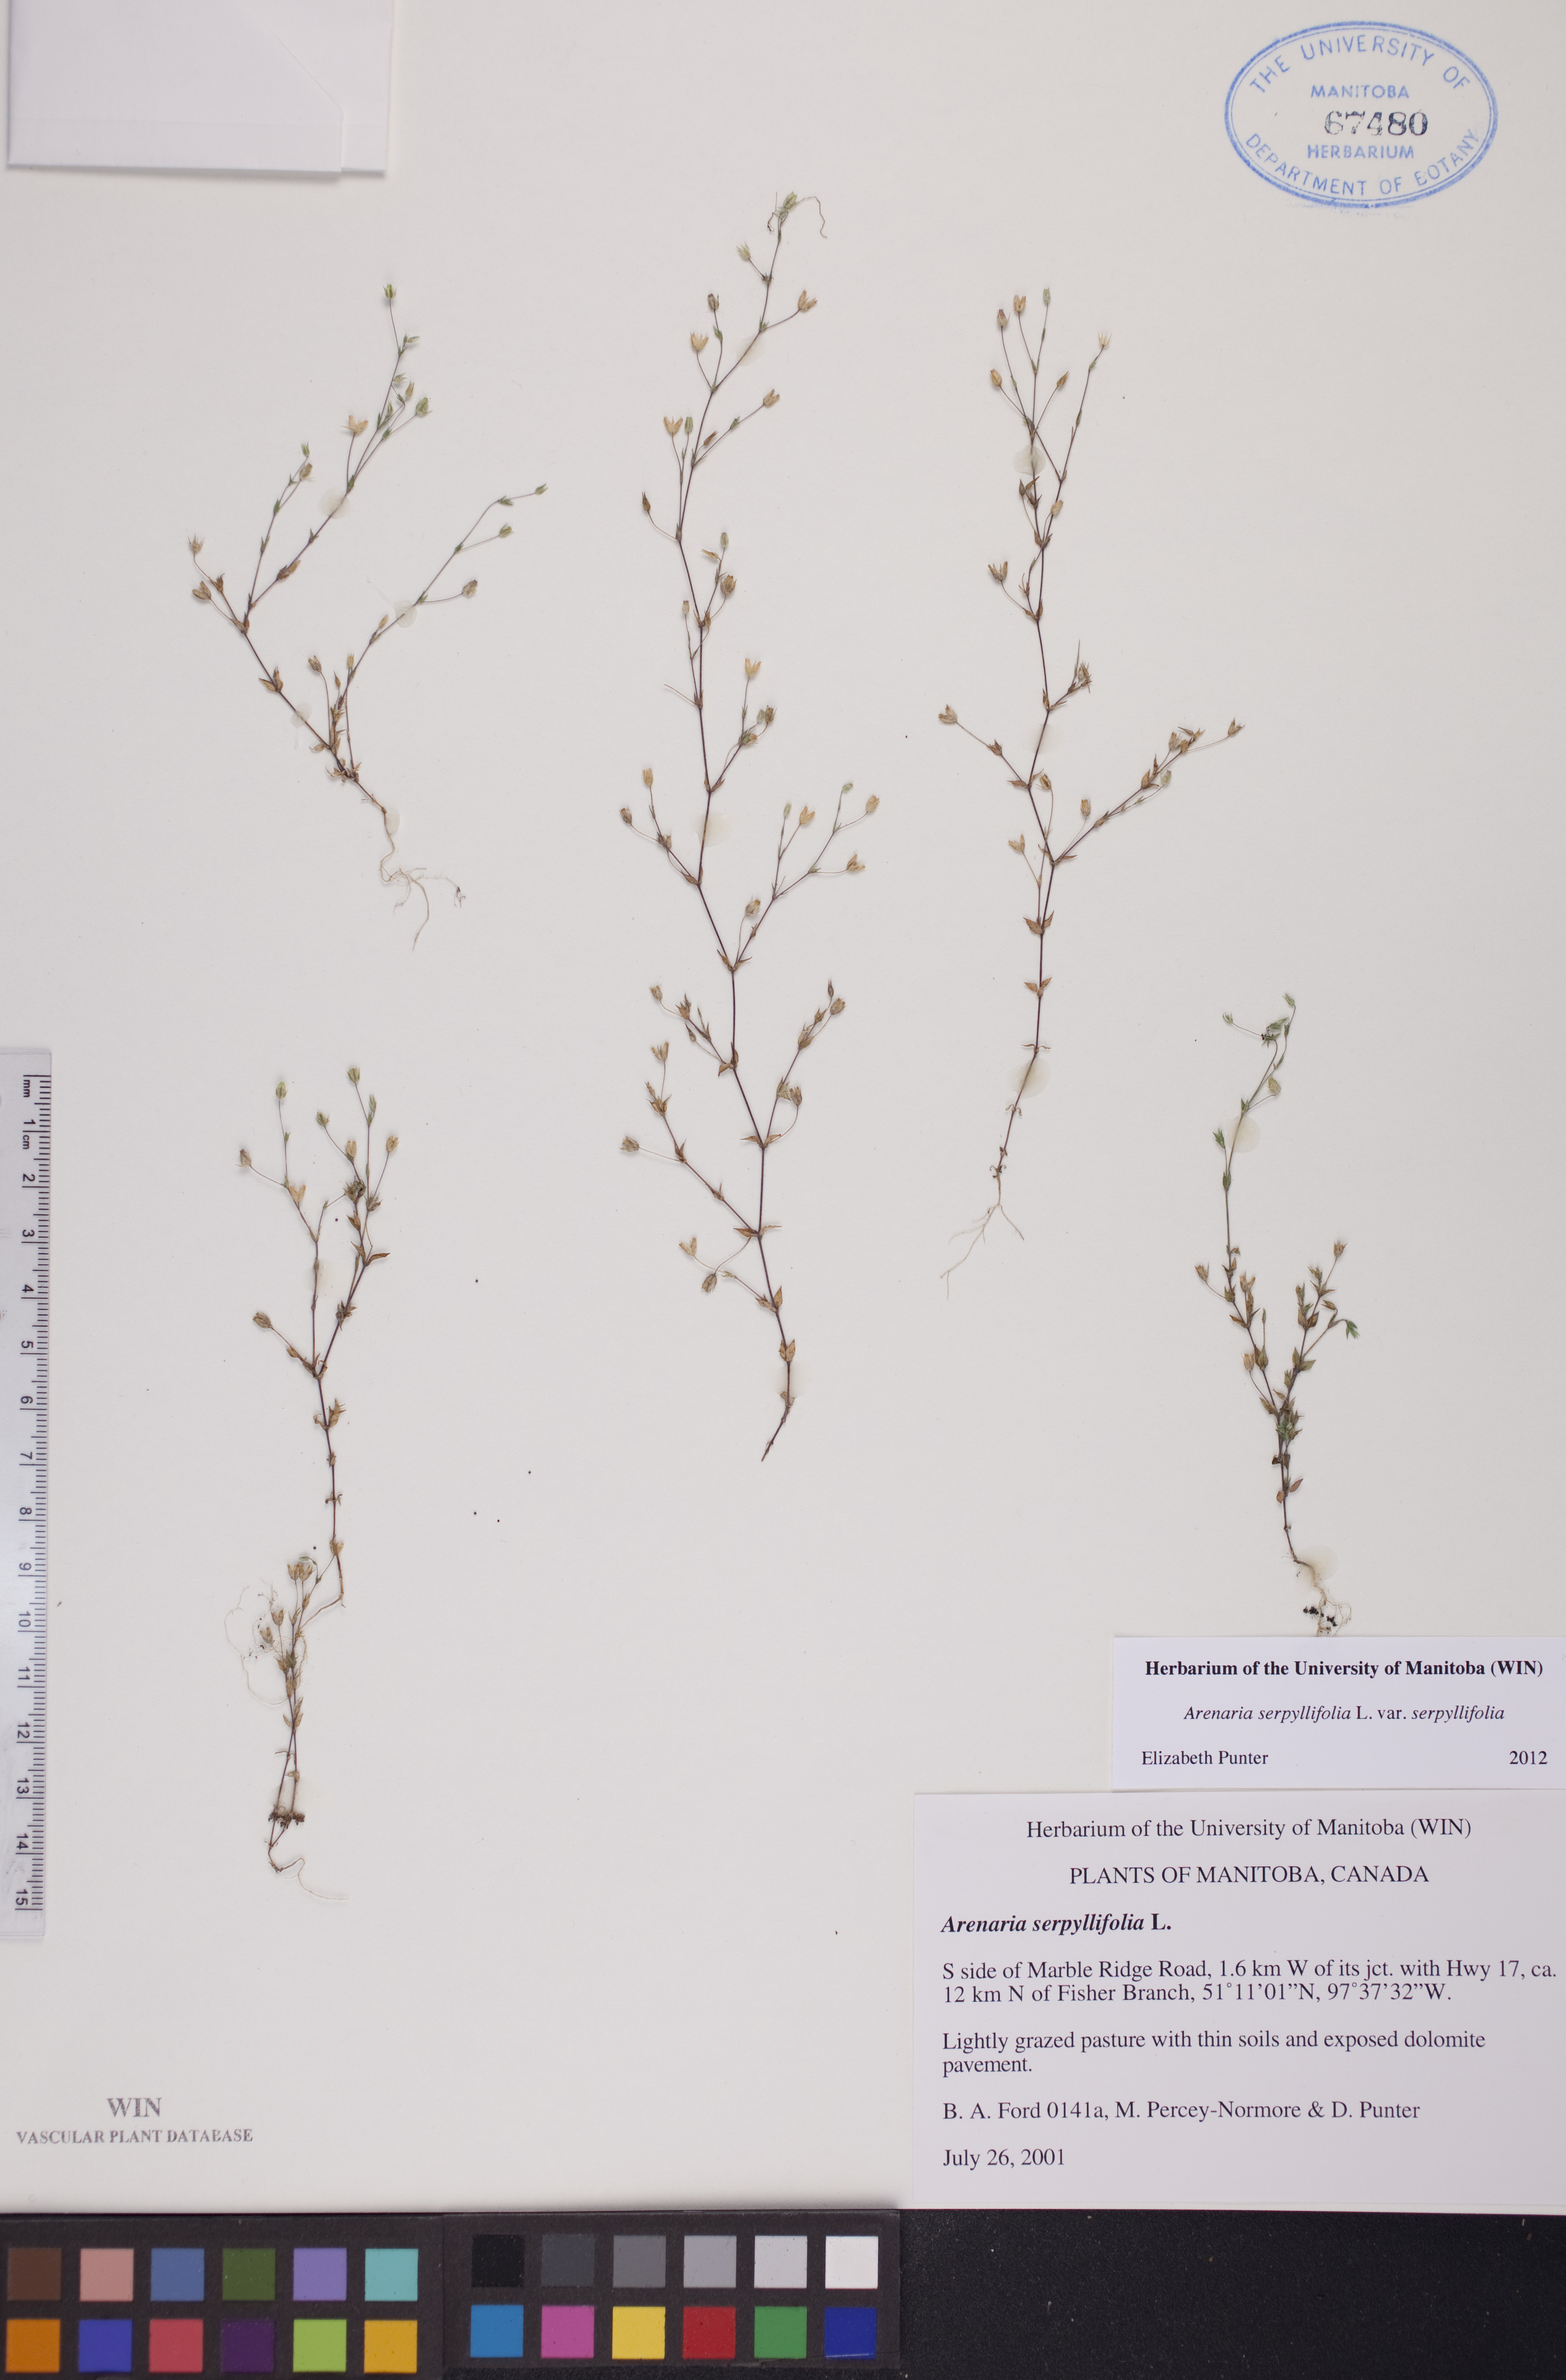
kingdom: Plantae
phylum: Tracheophyta
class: Magnoliopsida
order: Caryophyllales
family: Caryophyllaceae
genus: Arenaria
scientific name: Arenaria serpyllifolia
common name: Thyme-leaved sandwort
